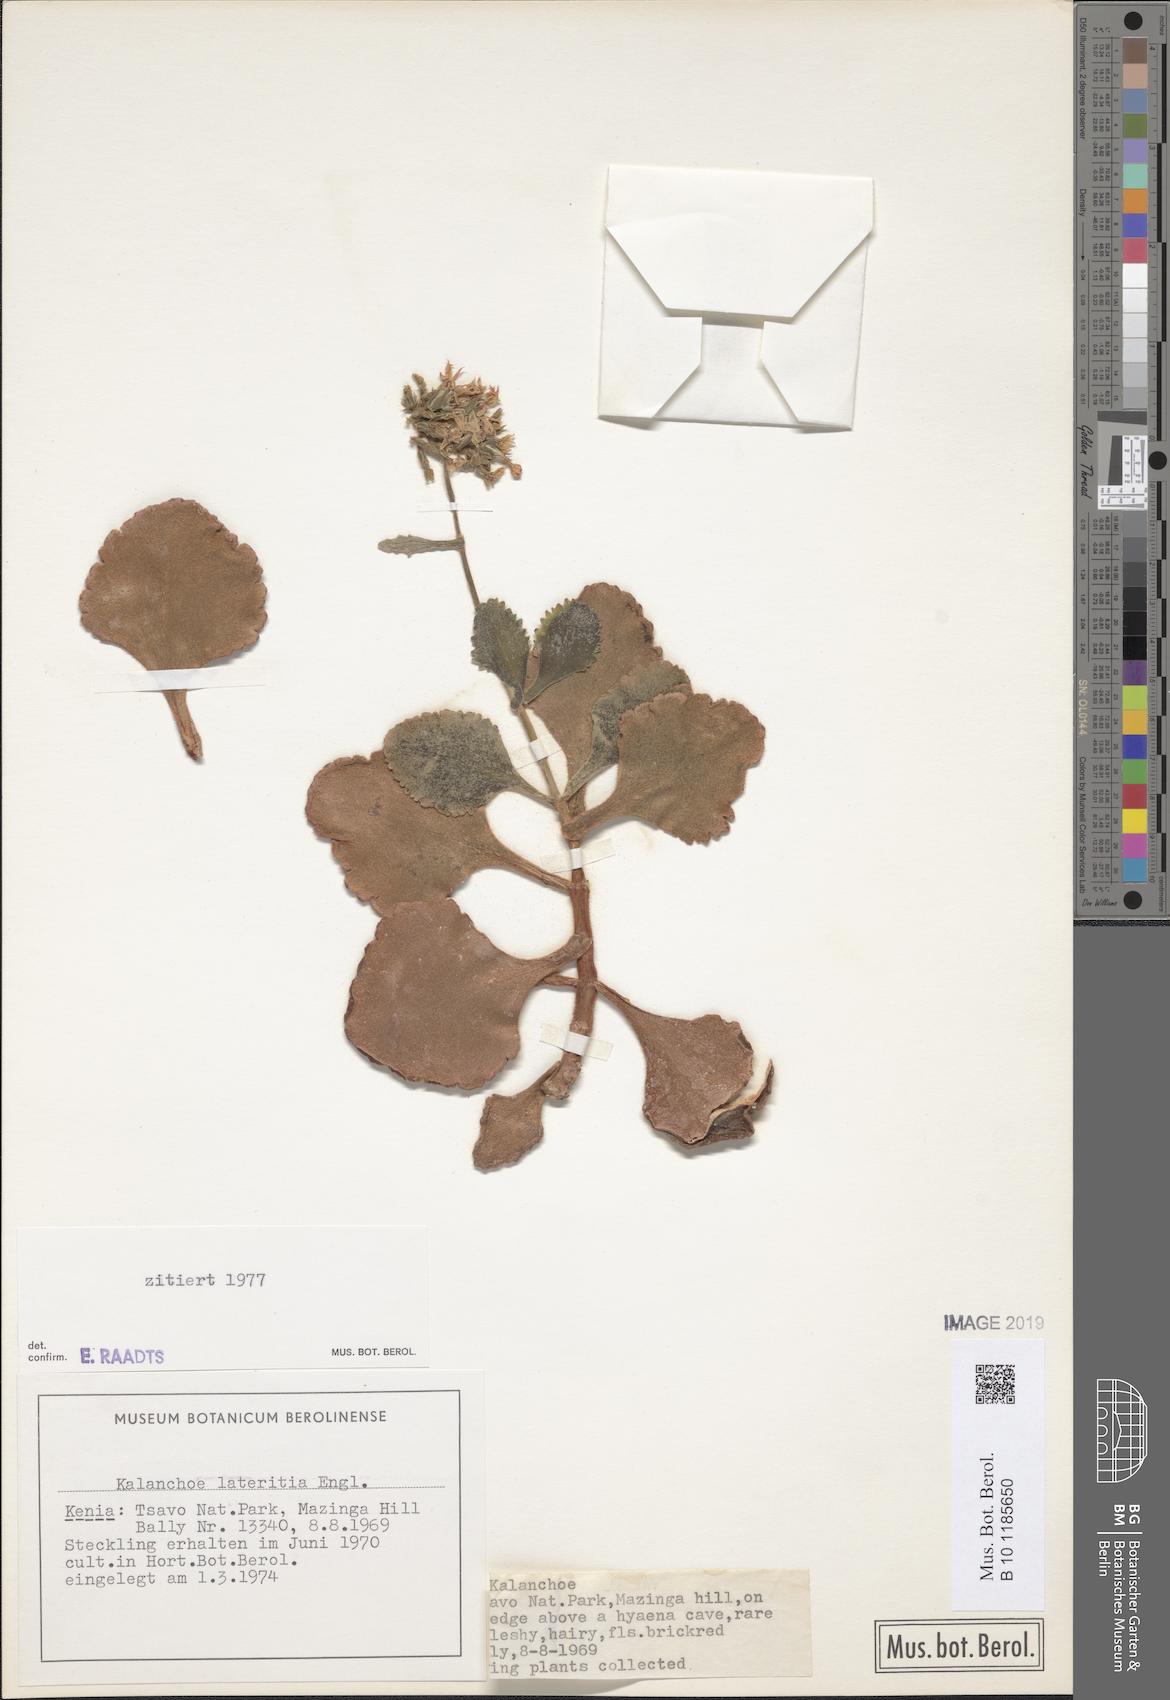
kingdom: Plantae
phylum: Tracheophyta
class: Magnoliopsida
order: Saxifragales
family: Crassulaceae
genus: Kalanchoe
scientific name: Kalanchoe lateritia
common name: Kalanchoe
